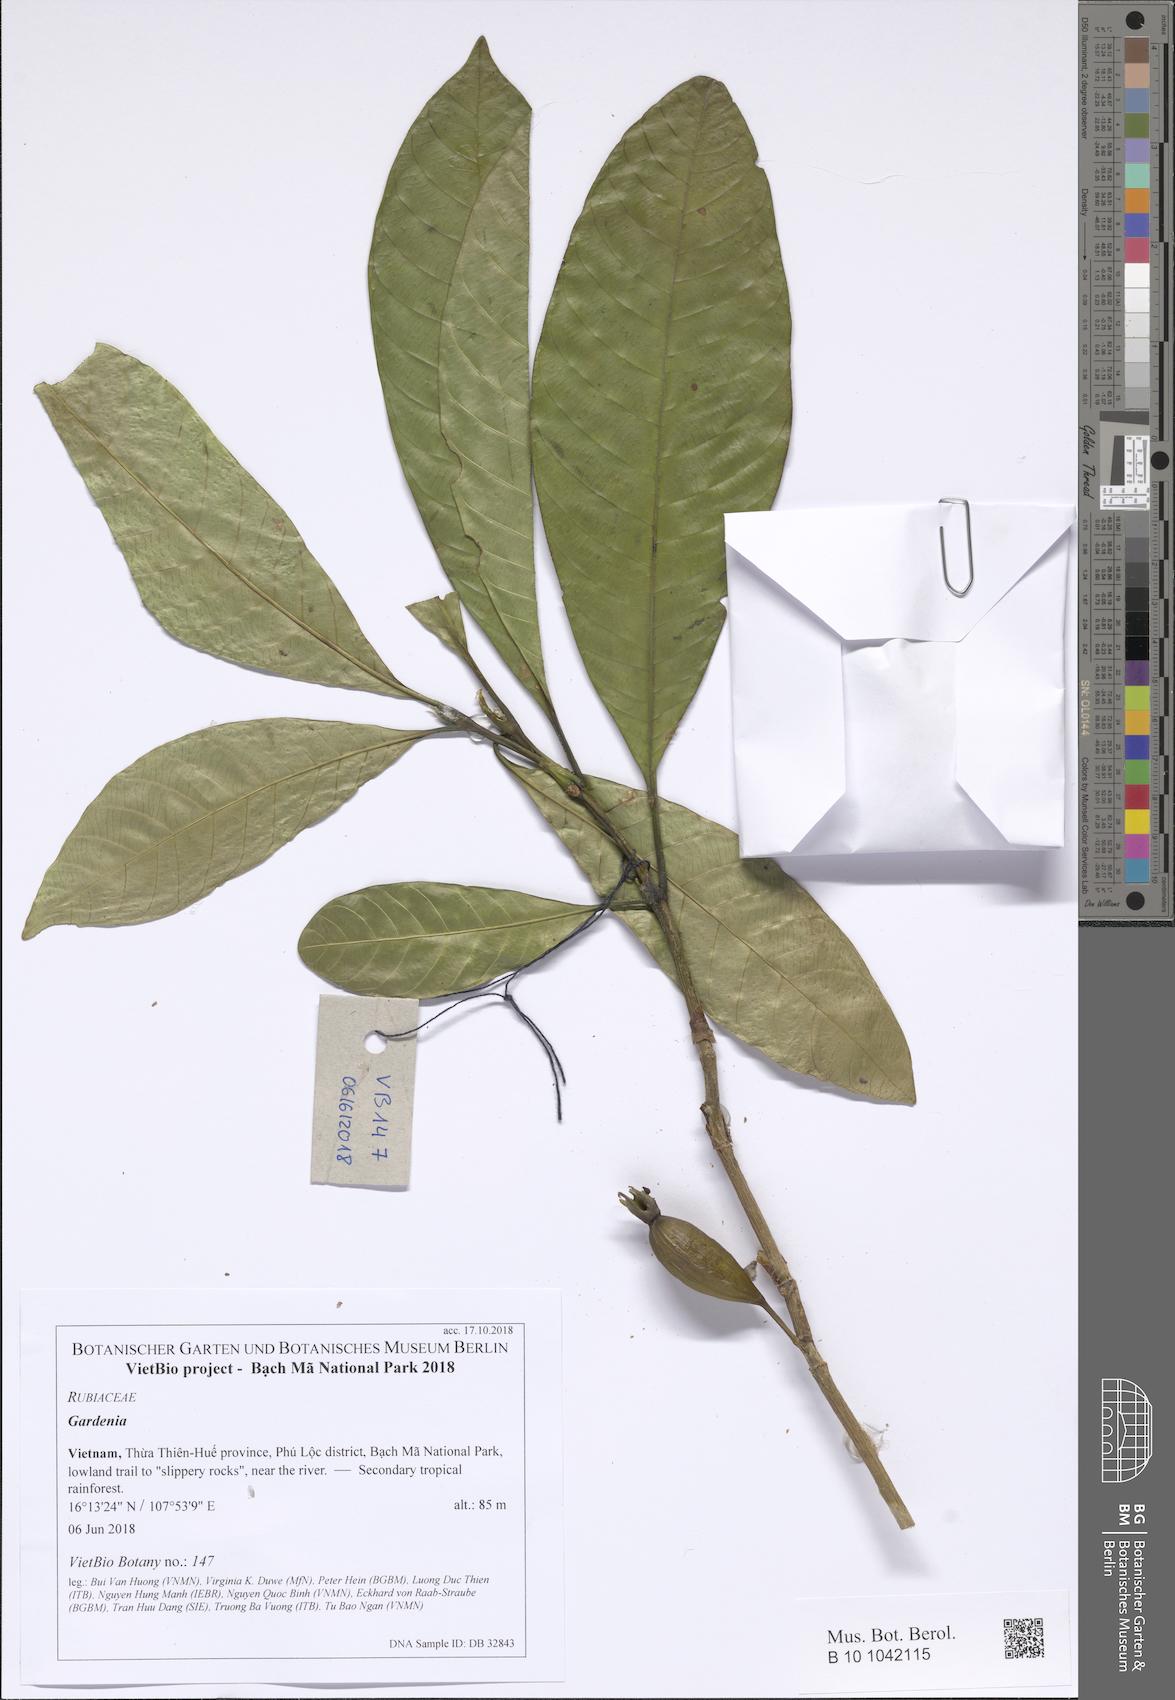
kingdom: Plantae
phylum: Tracheophyta
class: Magnoliopsida
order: Gentianales
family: Rubiaceae
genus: Gardenia
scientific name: Gardenia annamensis
